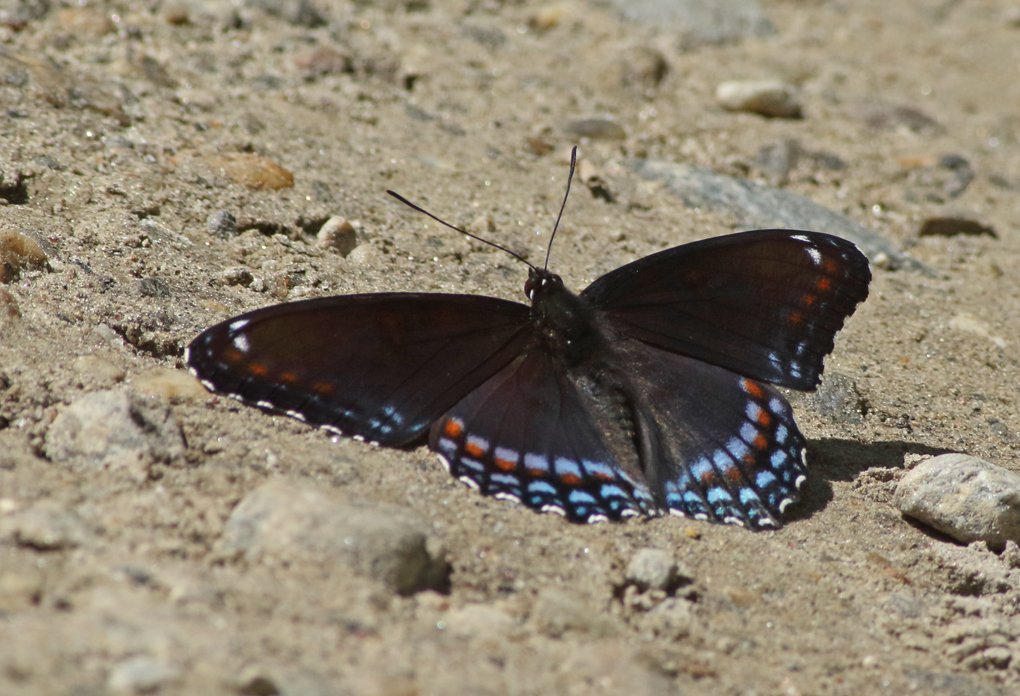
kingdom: Animalia
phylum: Arthropoda
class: Insecta
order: Lepidoptera
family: Nymphalidae
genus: Limenitis
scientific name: Limenitis astyanax
